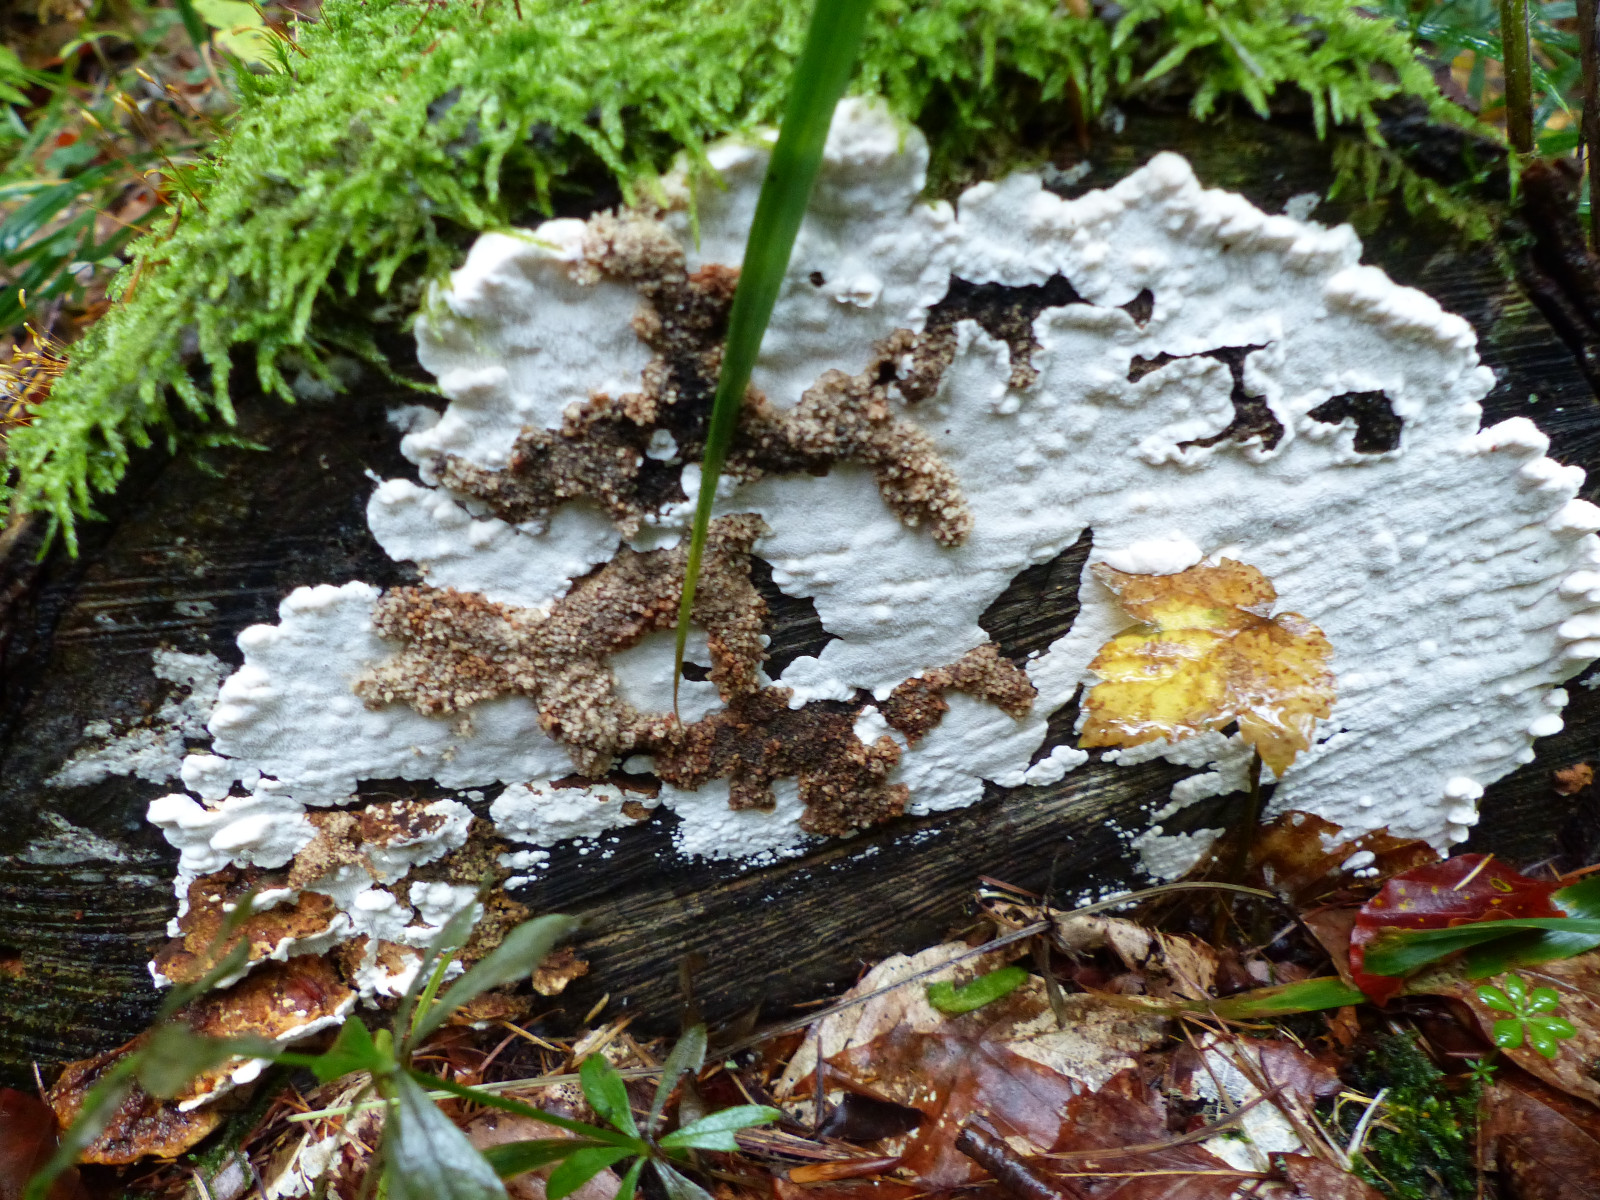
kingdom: Fungi
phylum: Basidiomycota
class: Agaricomycetes
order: Polyporales
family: Fomitopsidaceae
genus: Neoantrodia
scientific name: Neoantrodia serialis
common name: række-sejporesvamp
